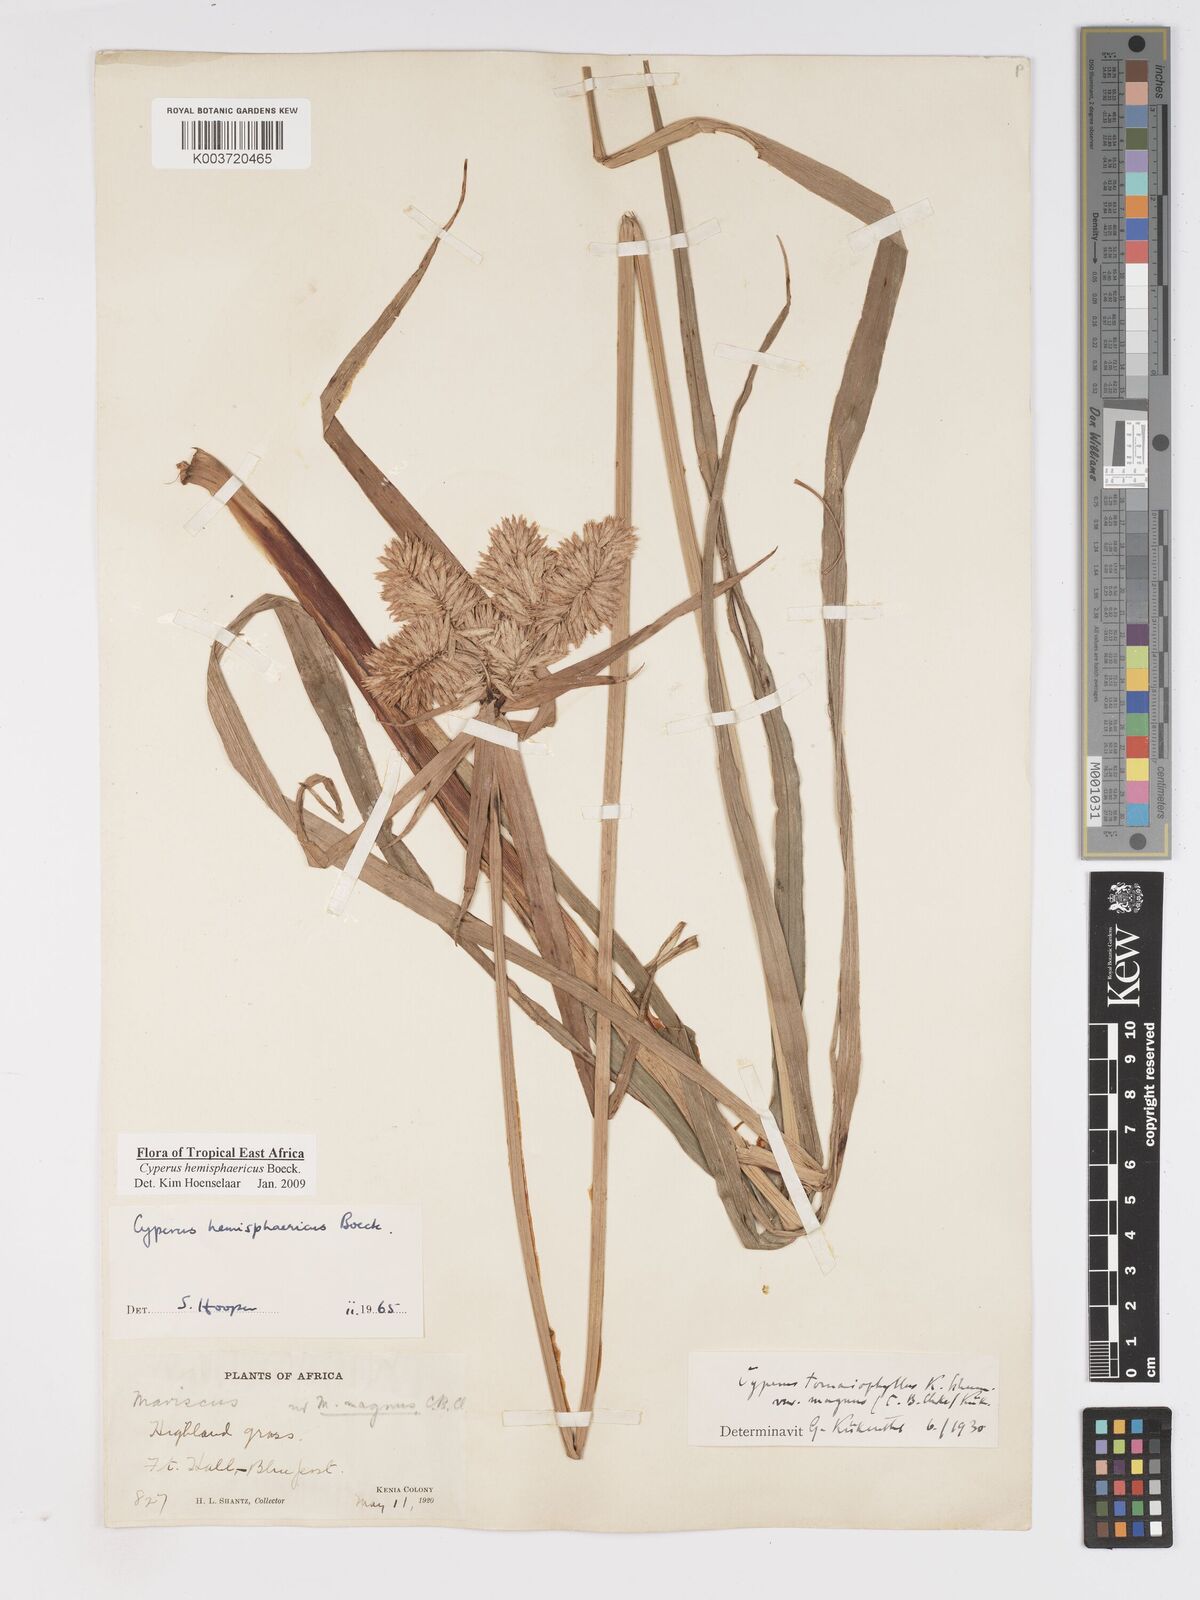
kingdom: Plantae
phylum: Tracheophyta
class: Liliopsida
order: Poales
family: Cyperaceae
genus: Cyperus
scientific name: Cyperus hemisphaericus
